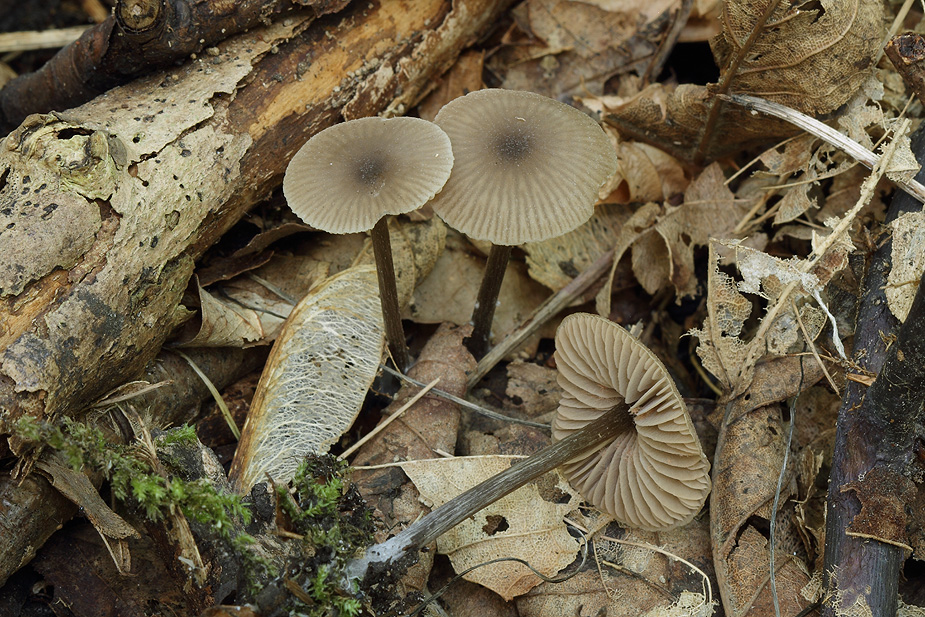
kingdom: Fungi
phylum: Basidiomycota
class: Agaricomycetes
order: Agaricales
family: Entolomataceae
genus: Entoloma
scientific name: Entoloma minutum
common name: liden rødblad
